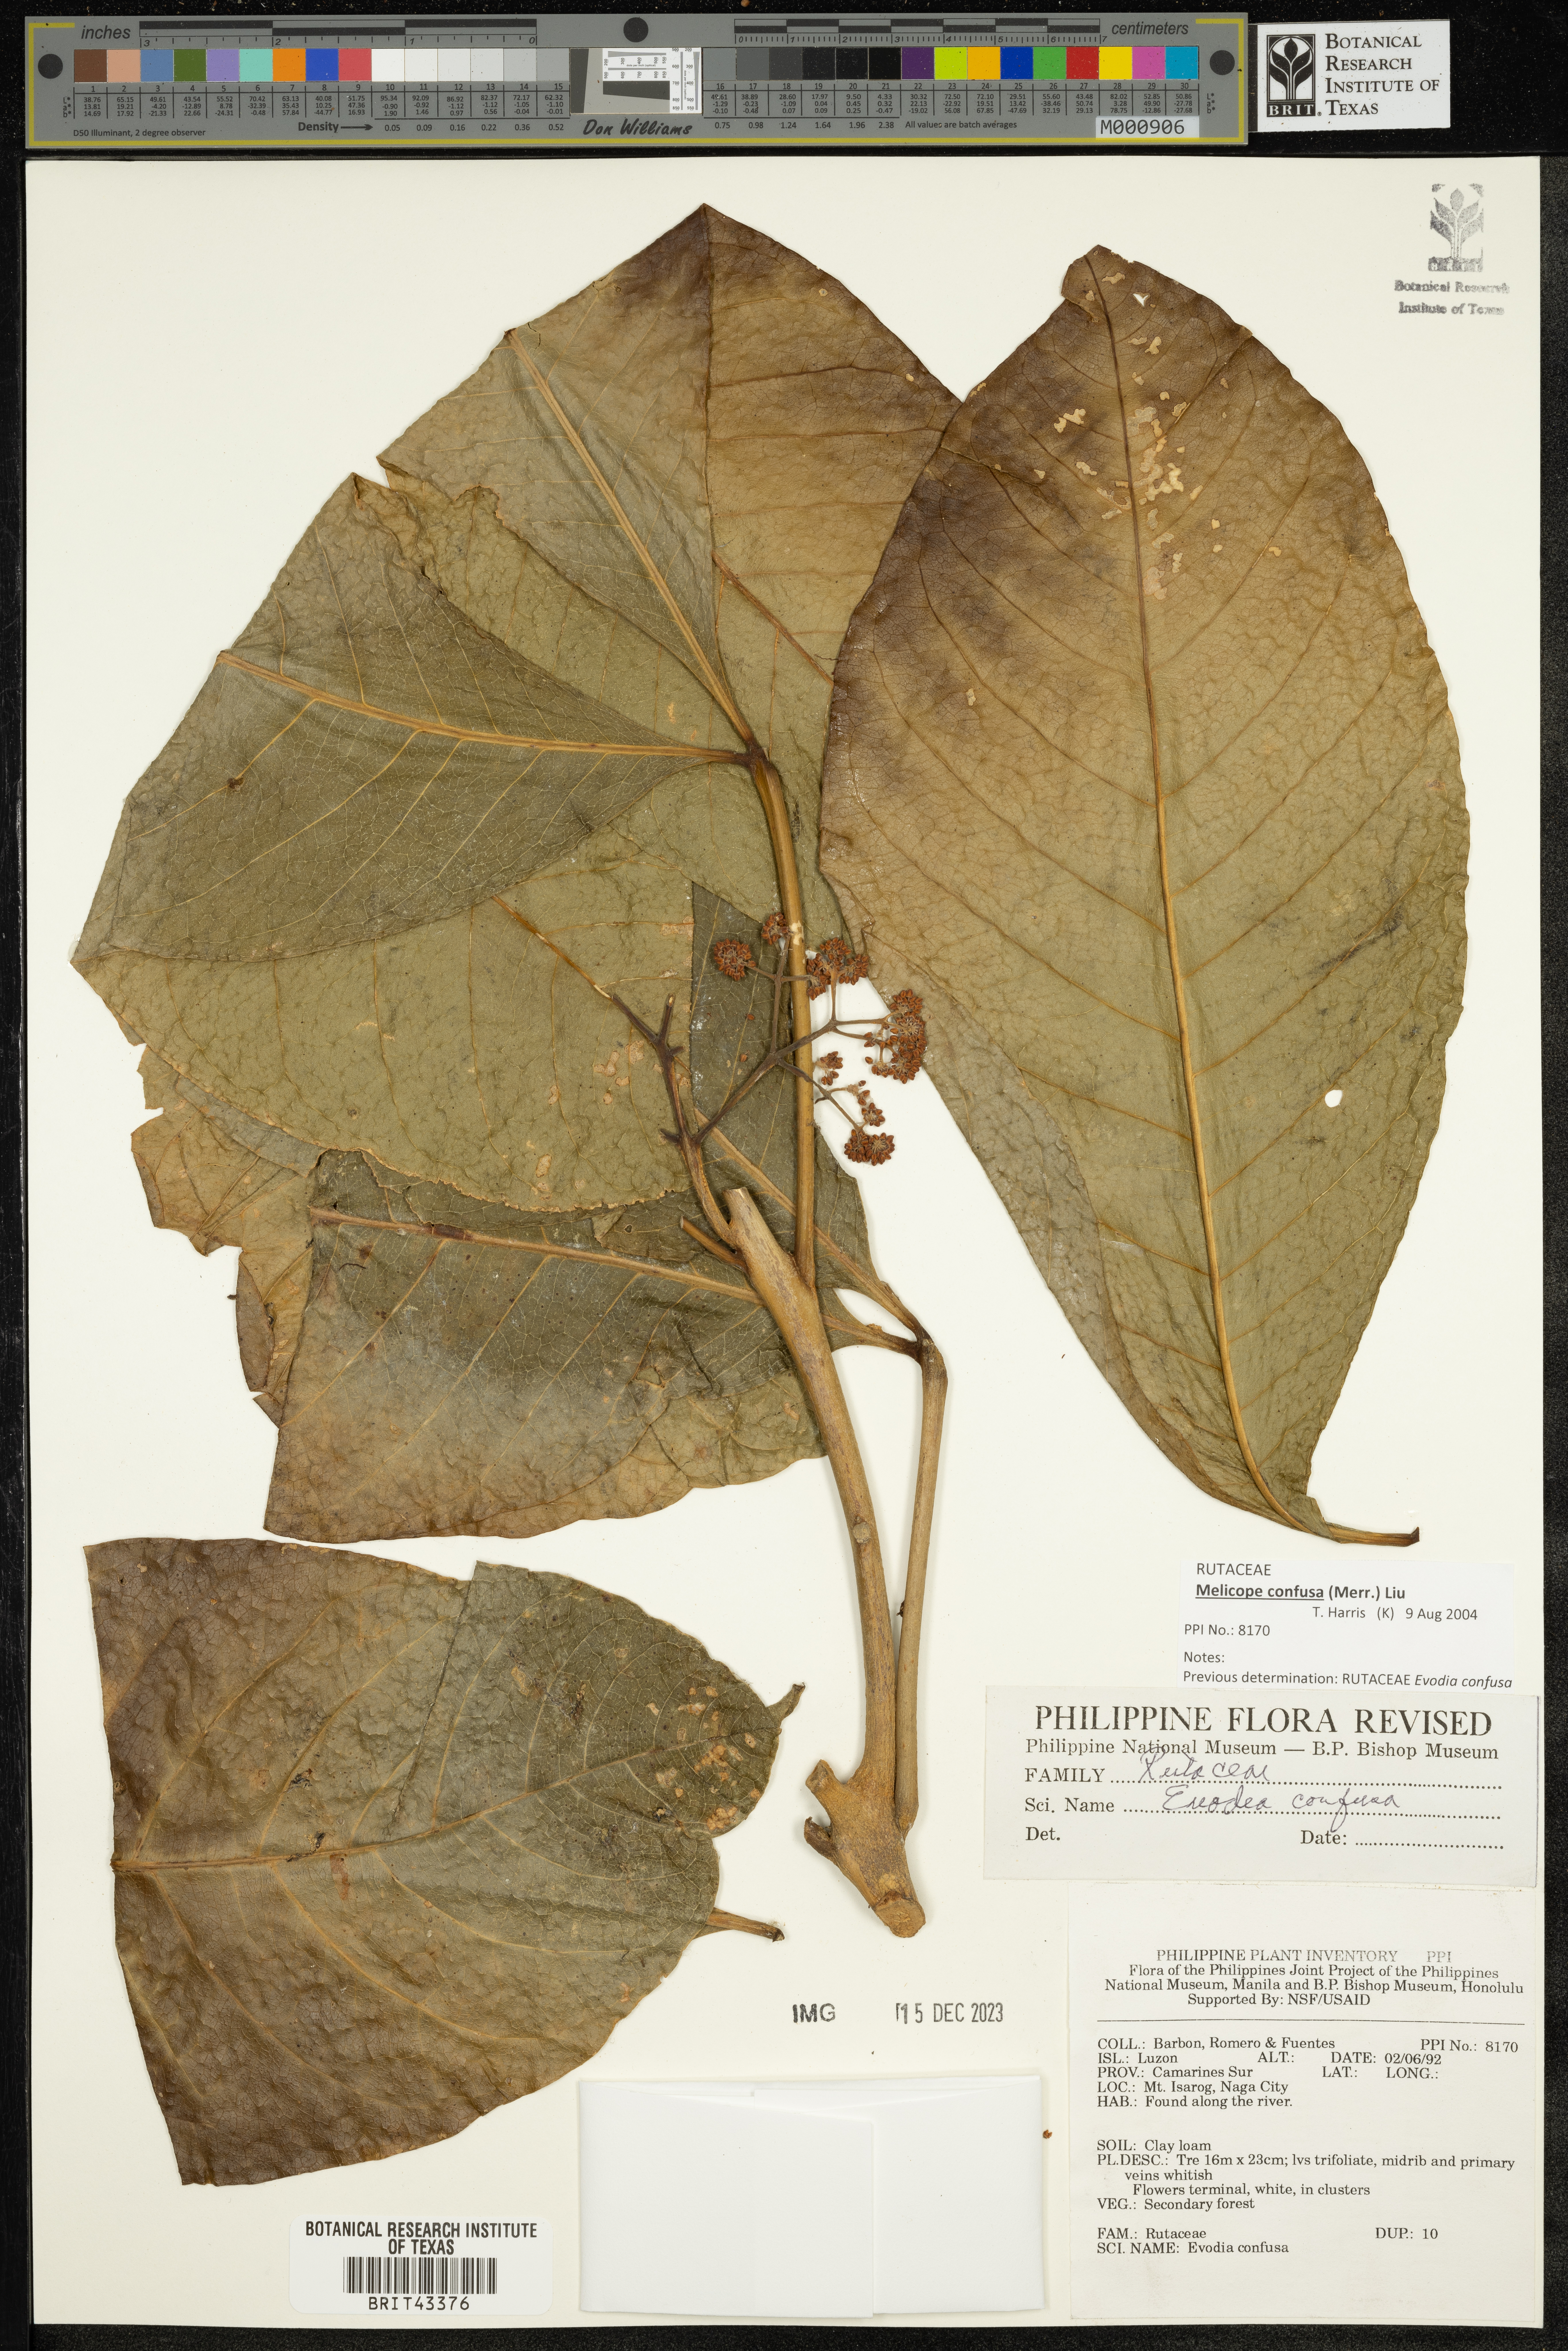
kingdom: Plantae
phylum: Tracheophyta
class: Magnoliopsida
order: Sapindales
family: Rutaceae
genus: Melicope
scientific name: Melicope frutescens
